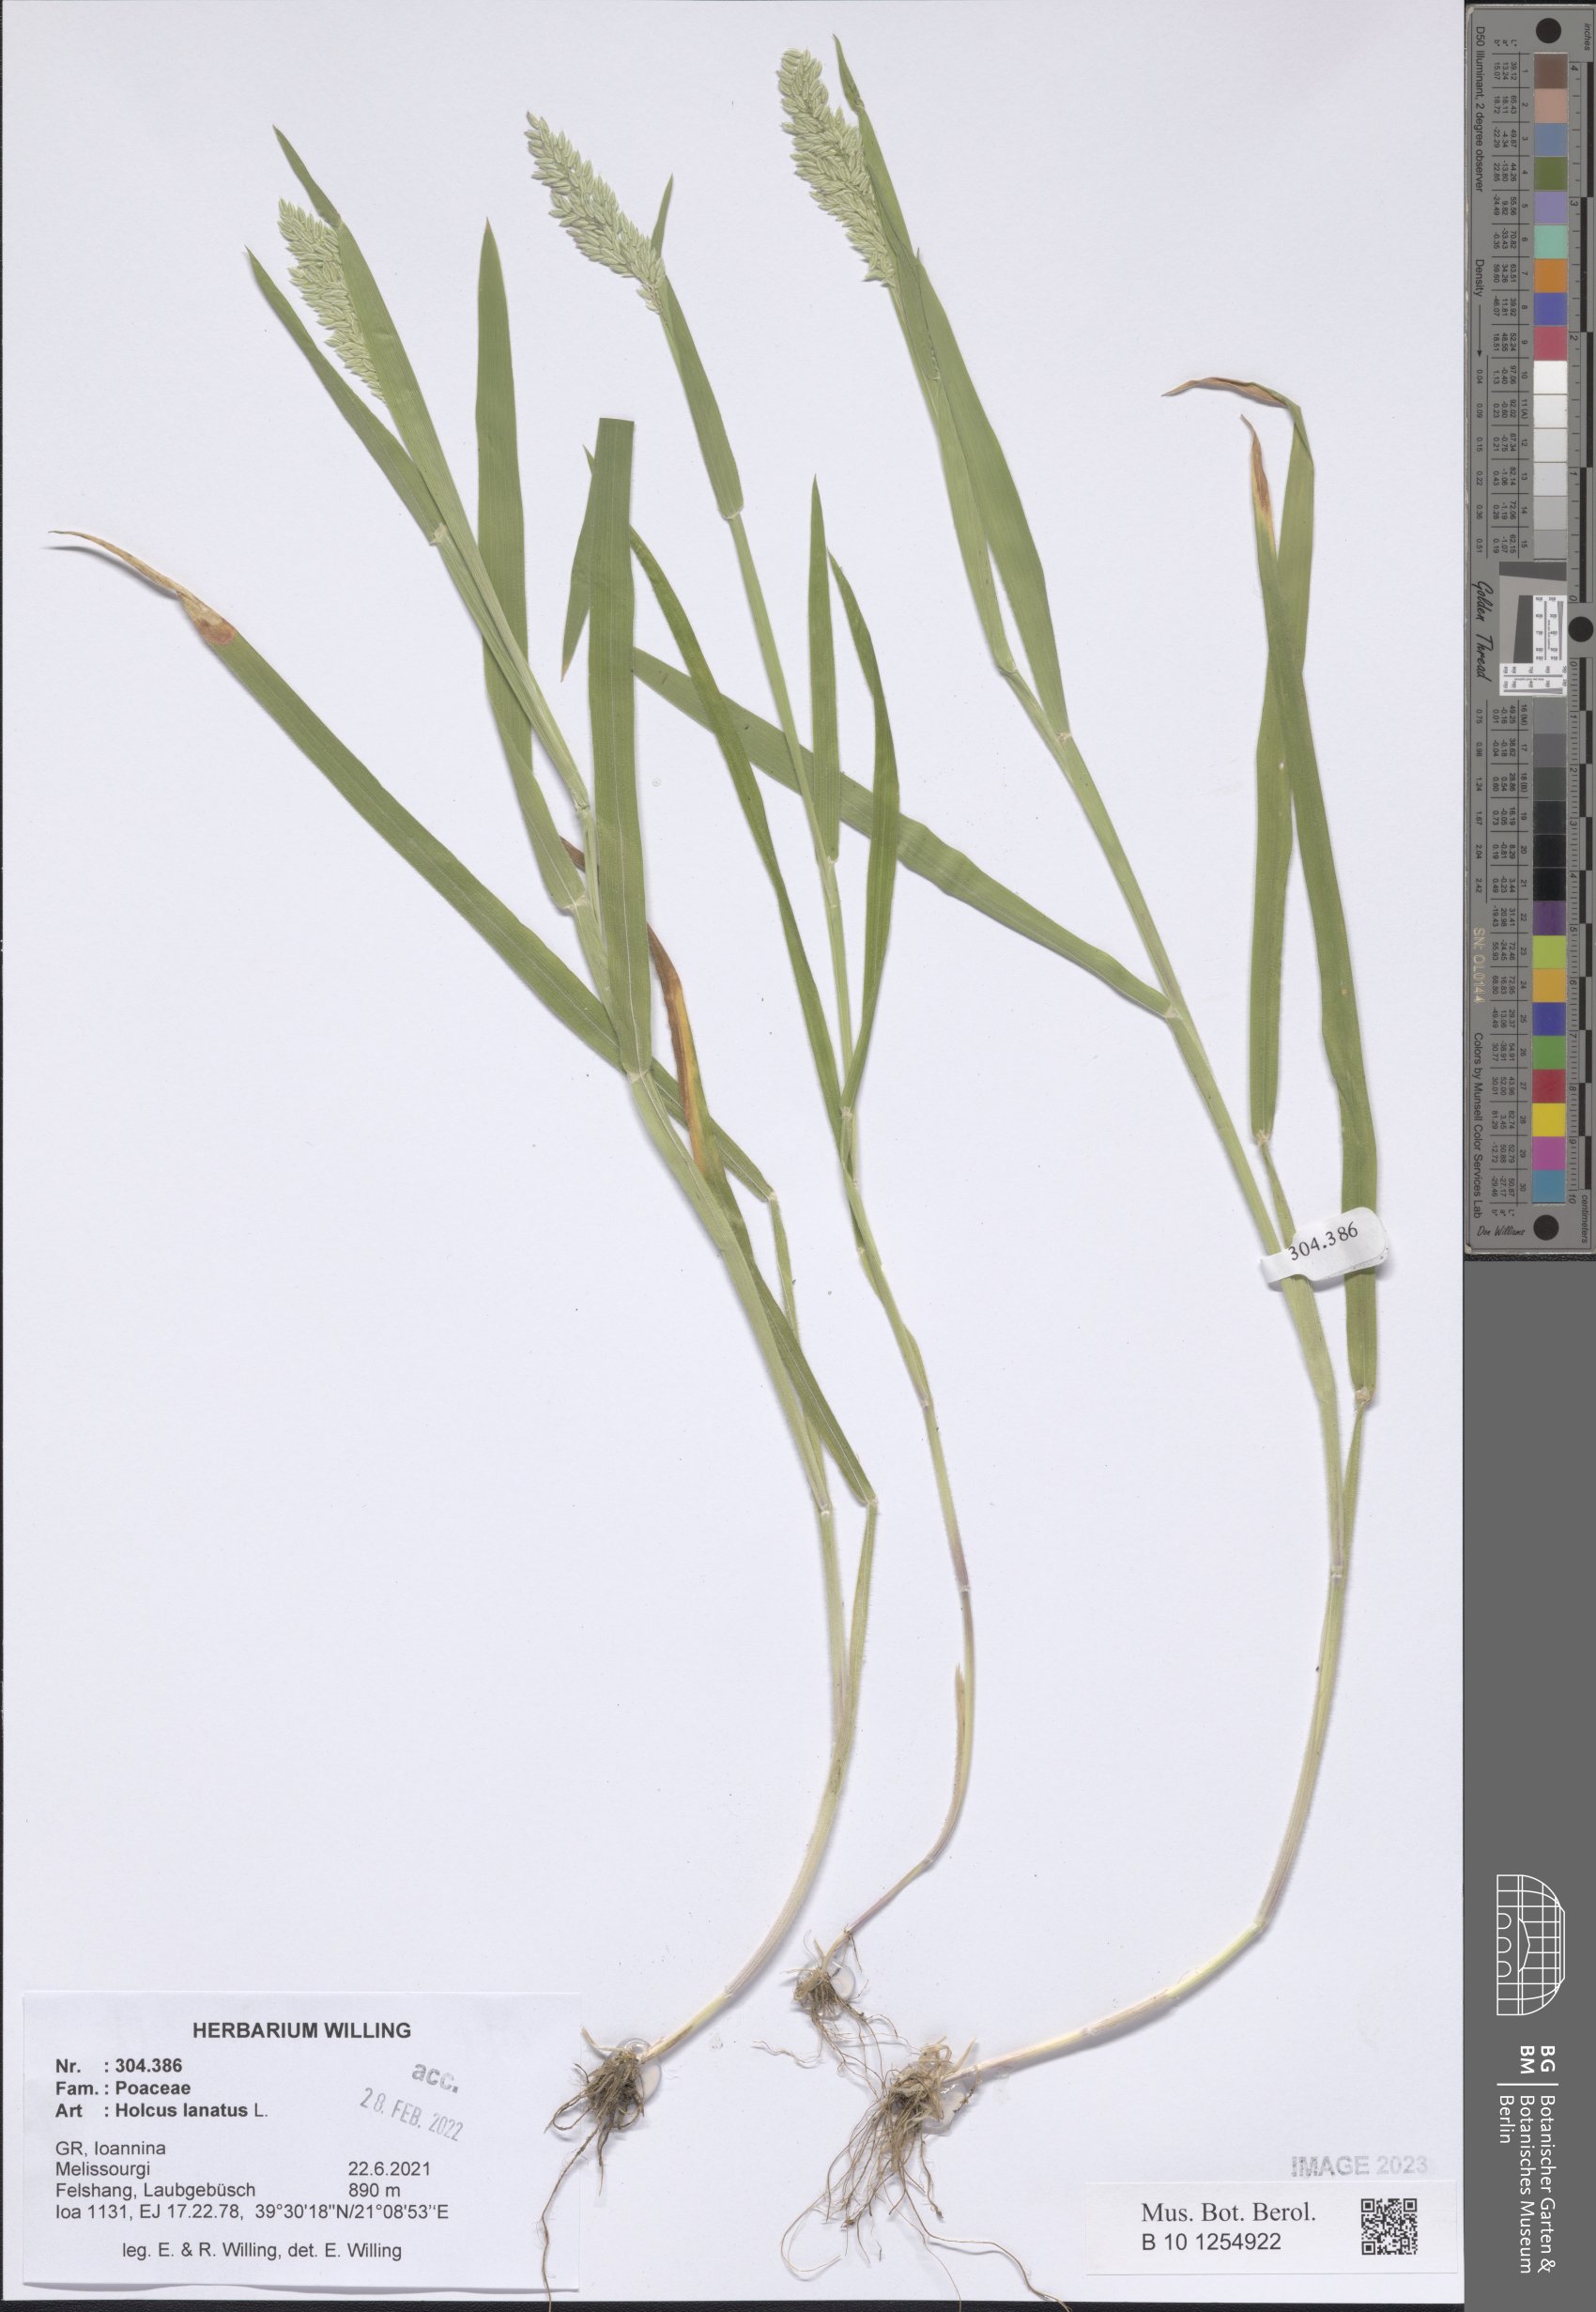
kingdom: Plantae
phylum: Tracheophyta
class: Liliopsida
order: Poales
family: Poaceae
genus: Holcus
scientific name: Holcus lanatus
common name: Yorkshire-fog
